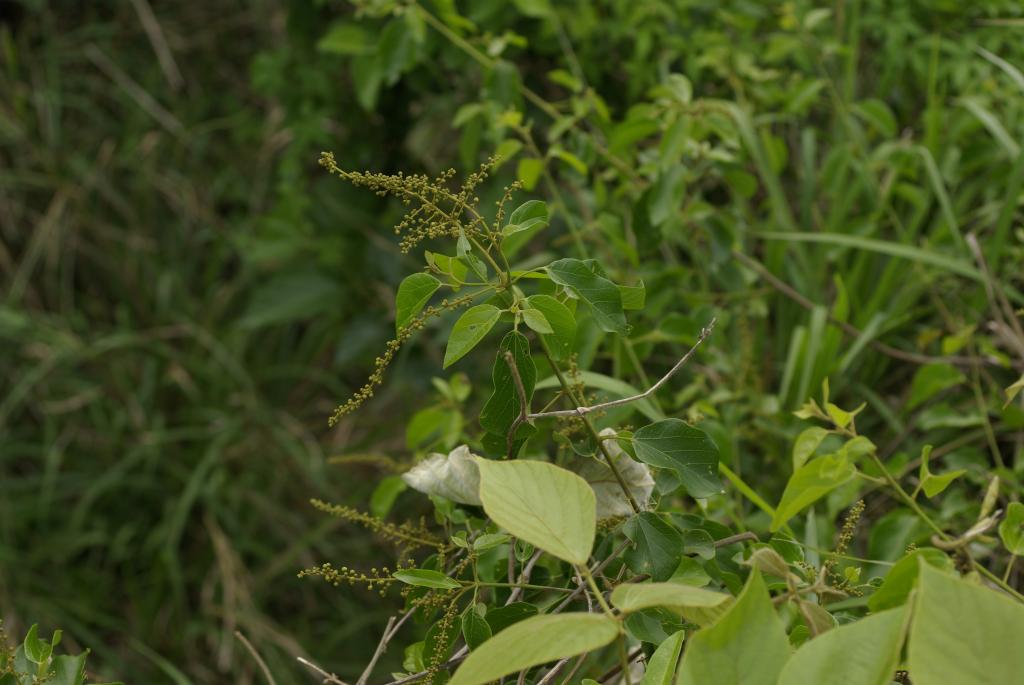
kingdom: Plantae
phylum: Tracheophyta
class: Magnoliopsida
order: Malpighiales
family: Euphorbiaceae
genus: Mallotus
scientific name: Mallotus repandus
